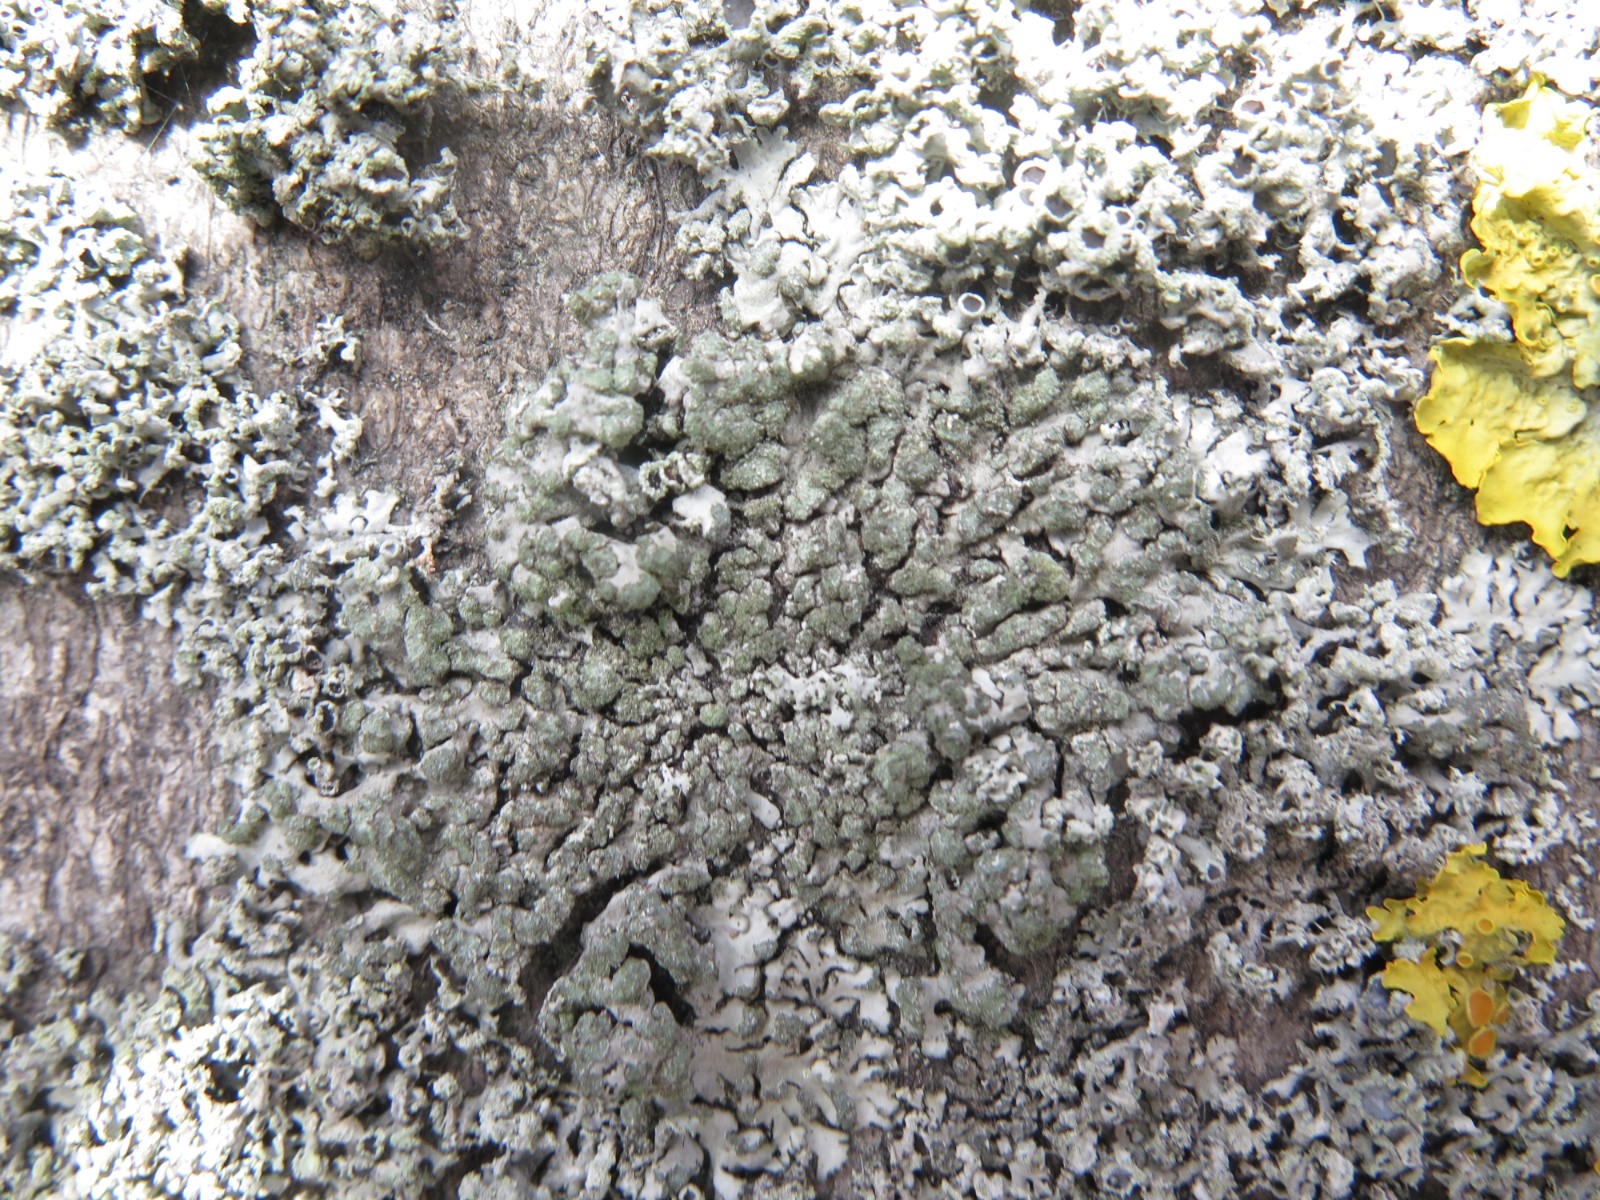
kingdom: Fungi
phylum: Ascomycota
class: Lecanoromycetes
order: Caliciales
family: Physciaceae
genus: Phaeophyscia
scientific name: Phaeophyscia orbicularis
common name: grågrøn rosetlav
